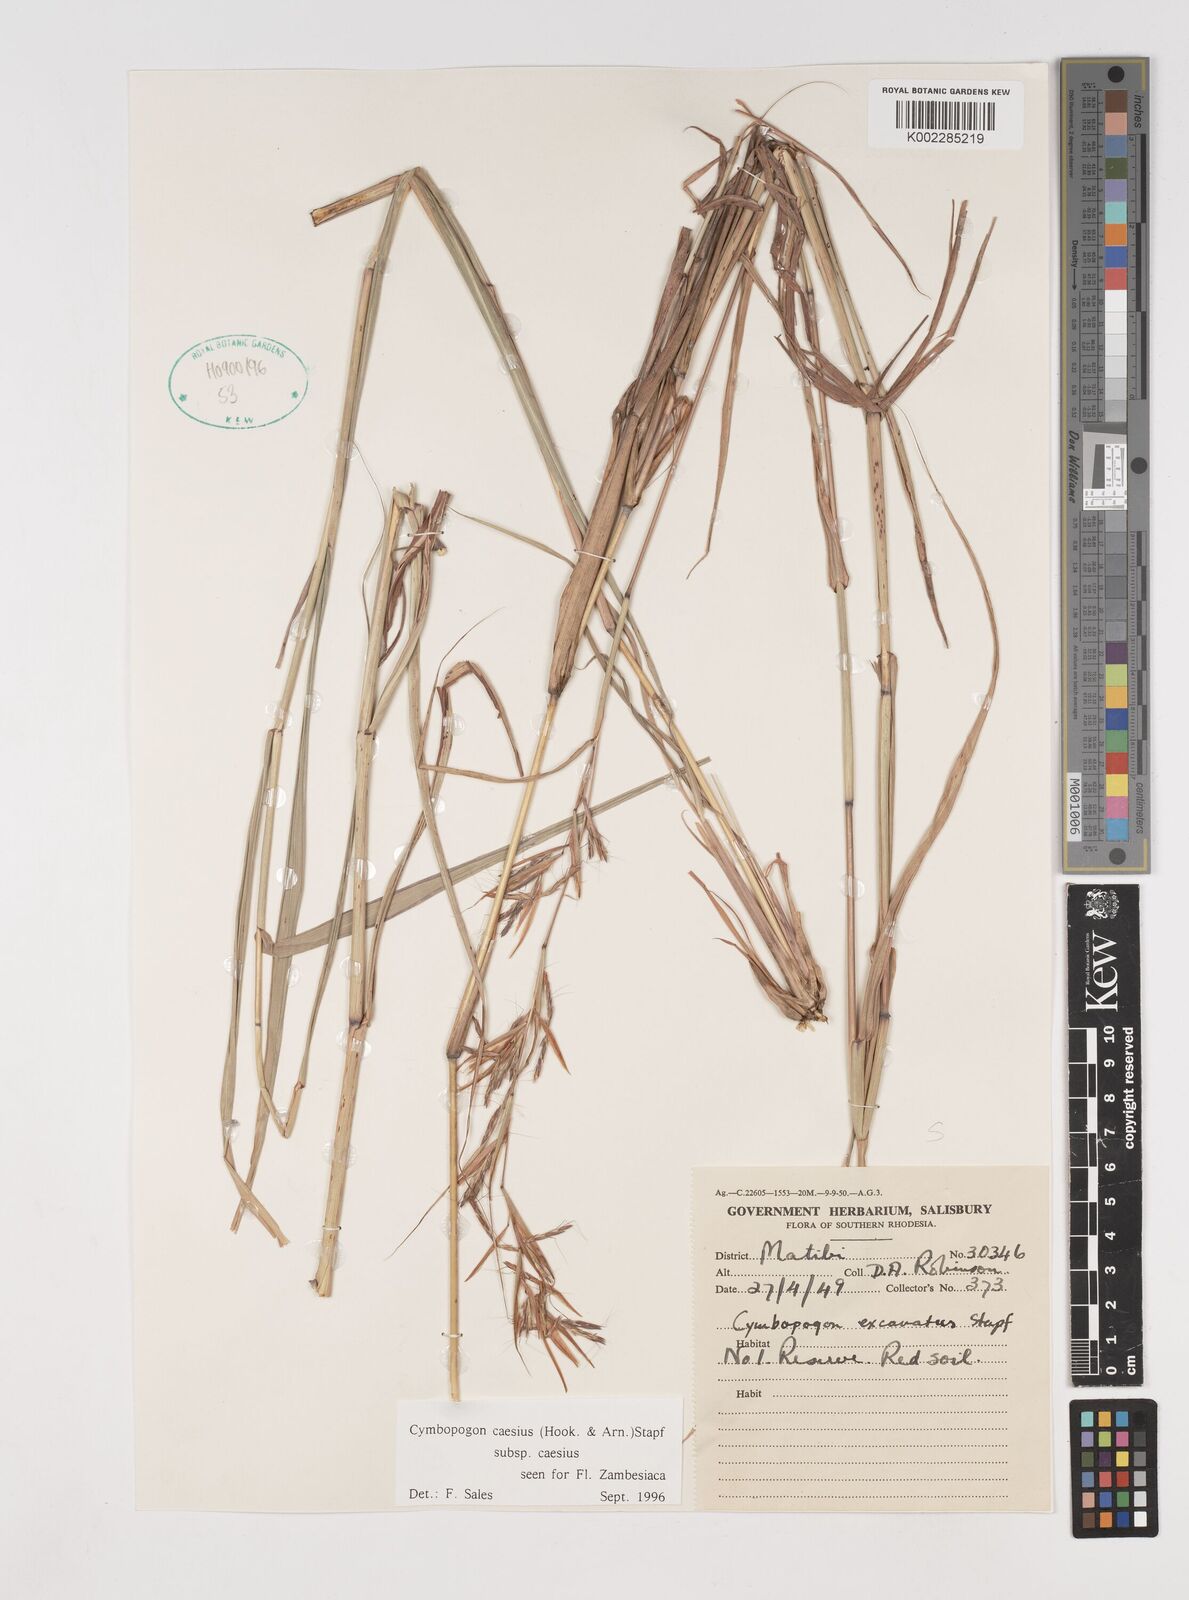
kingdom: Plantae
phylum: Tracheophyta
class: Liliopsida
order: Poales
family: Poaceae
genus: Cymbopogon
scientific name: Cymbopogon caesius
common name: Kachi grass
